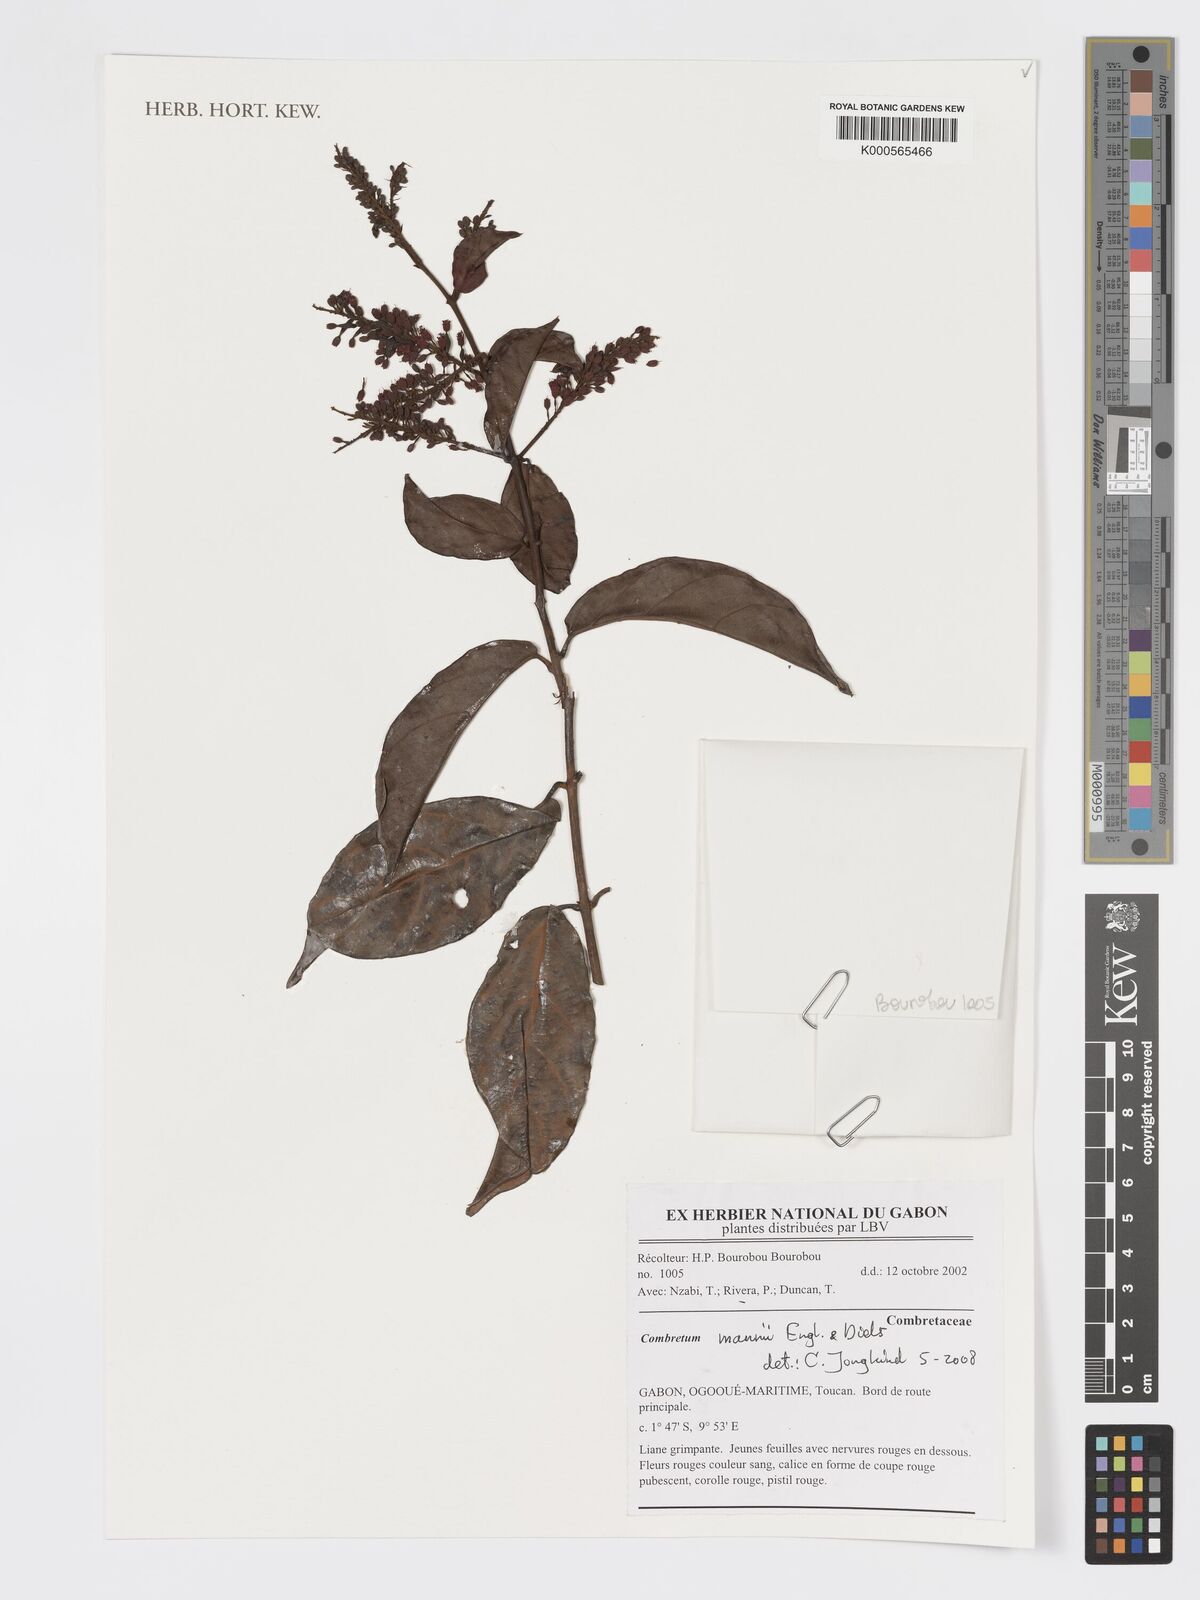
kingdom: Plantae
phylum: Tracheophyta
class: Magnoliopsida
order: Myrtales
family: Combretaceae
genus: Combretum
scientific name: Combretum
